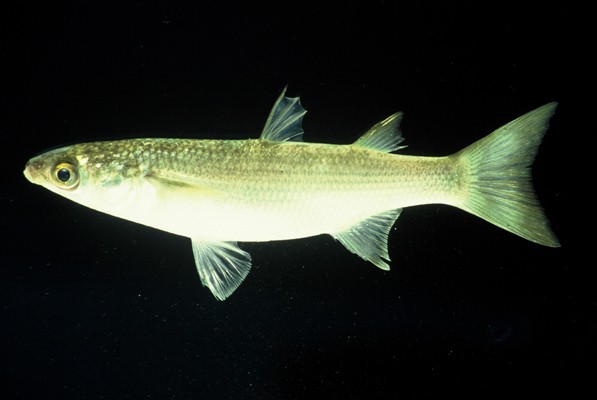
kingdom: Animalia
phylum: Chordata
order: Mugiliformes
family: Mugilidae
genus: Pseudomyxus
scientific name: Pseudomyxus capensis
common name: Freshwater mullet
